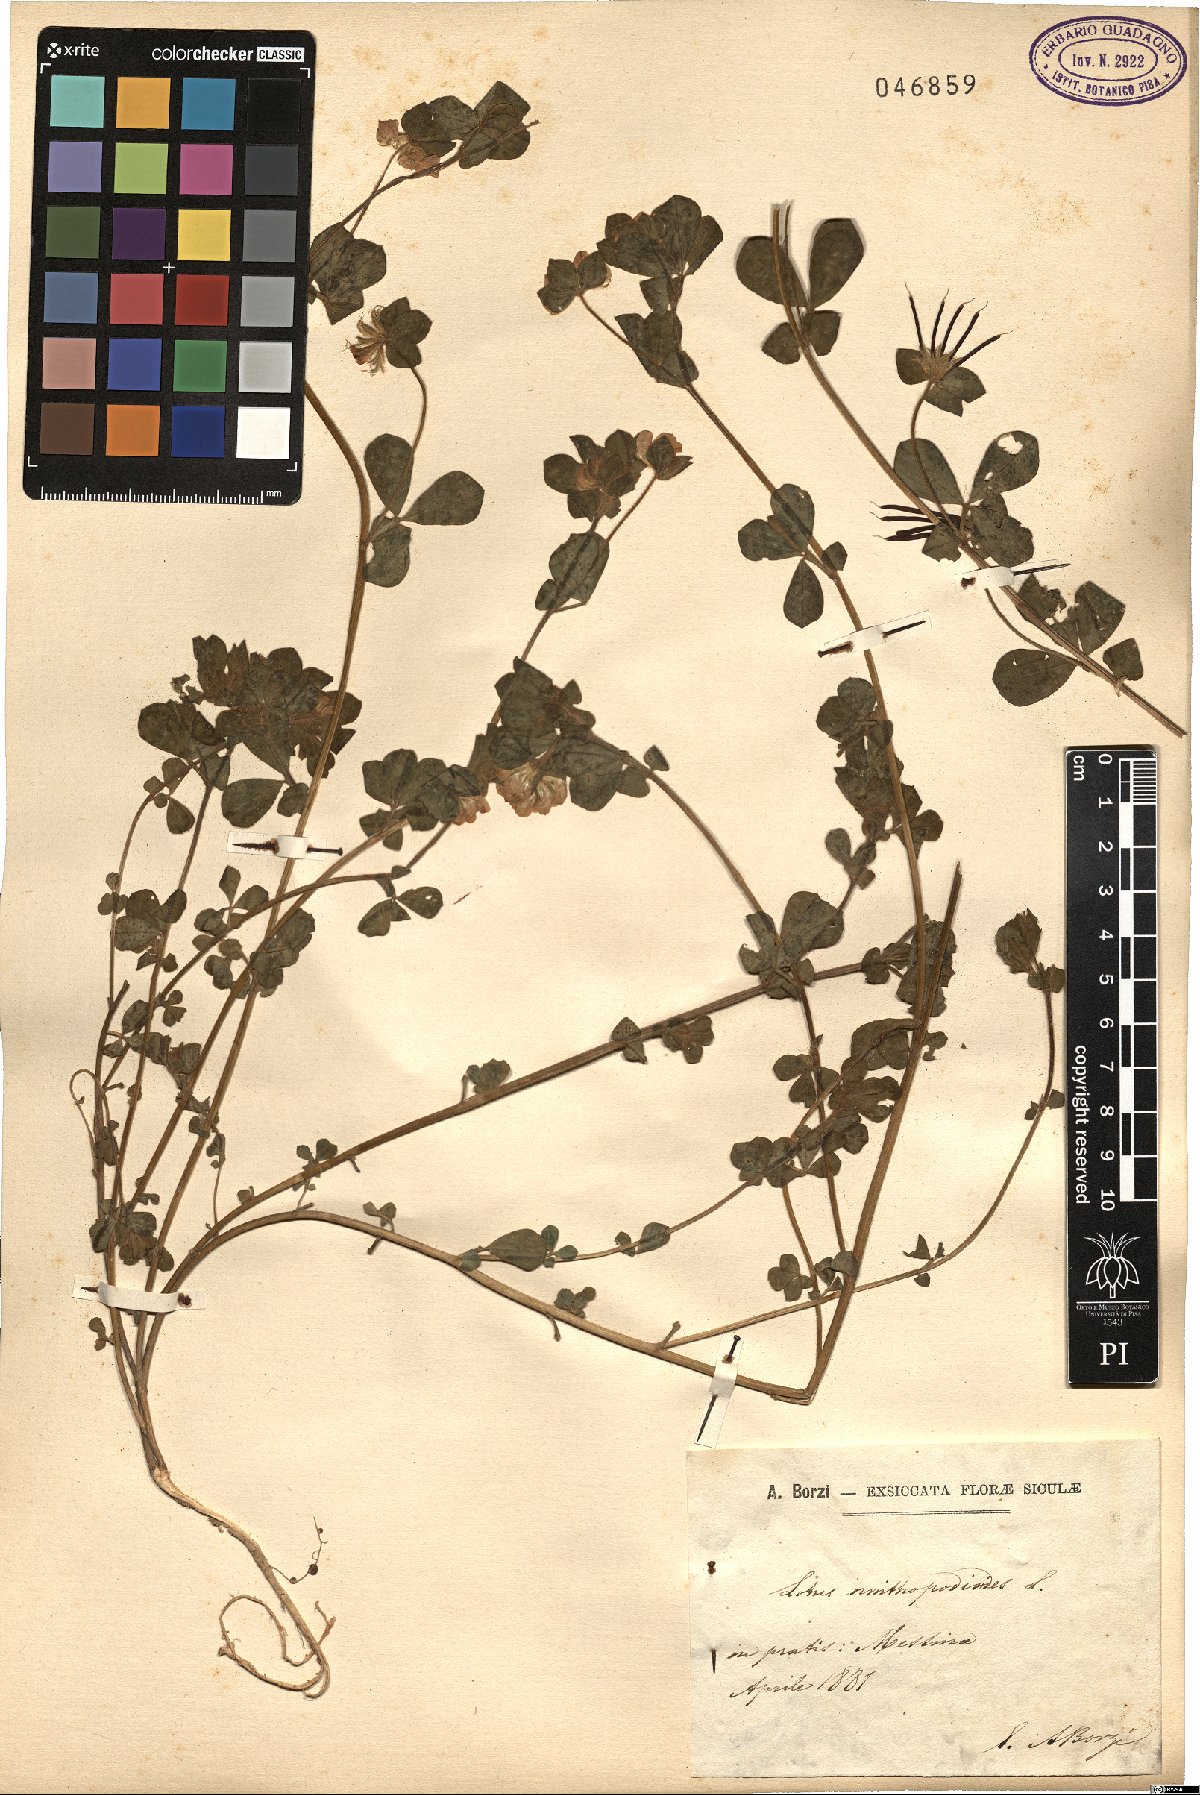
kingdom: Plantae
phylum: Tracheophyta
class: Magnoliopsida
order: Fabales
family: Fabaceae
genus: Lotus
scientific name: Lotus ornithopodioides
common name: Southern bird's-foot trefoil
